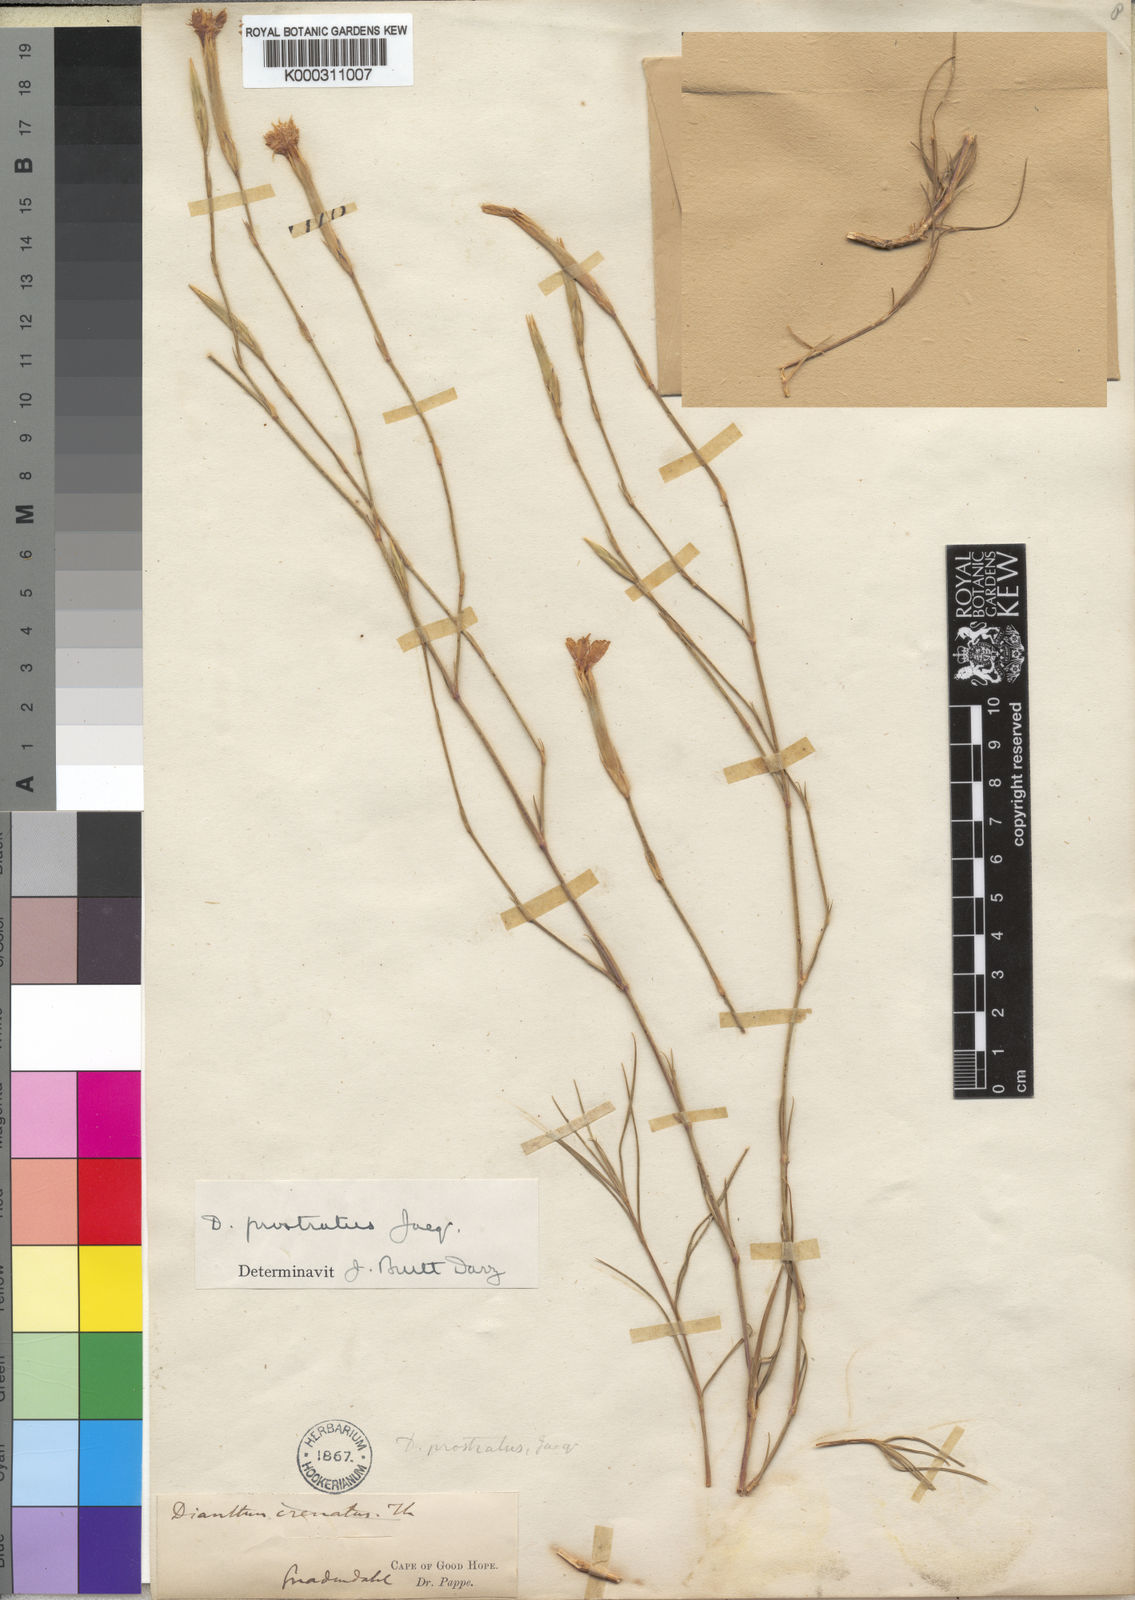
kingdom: Plantae
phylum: Tracheophyta
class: Magnoliopsida
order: Caryophyllales
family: Caryophyllaceae
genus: Dianthus
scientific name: Dianthus crenatus
